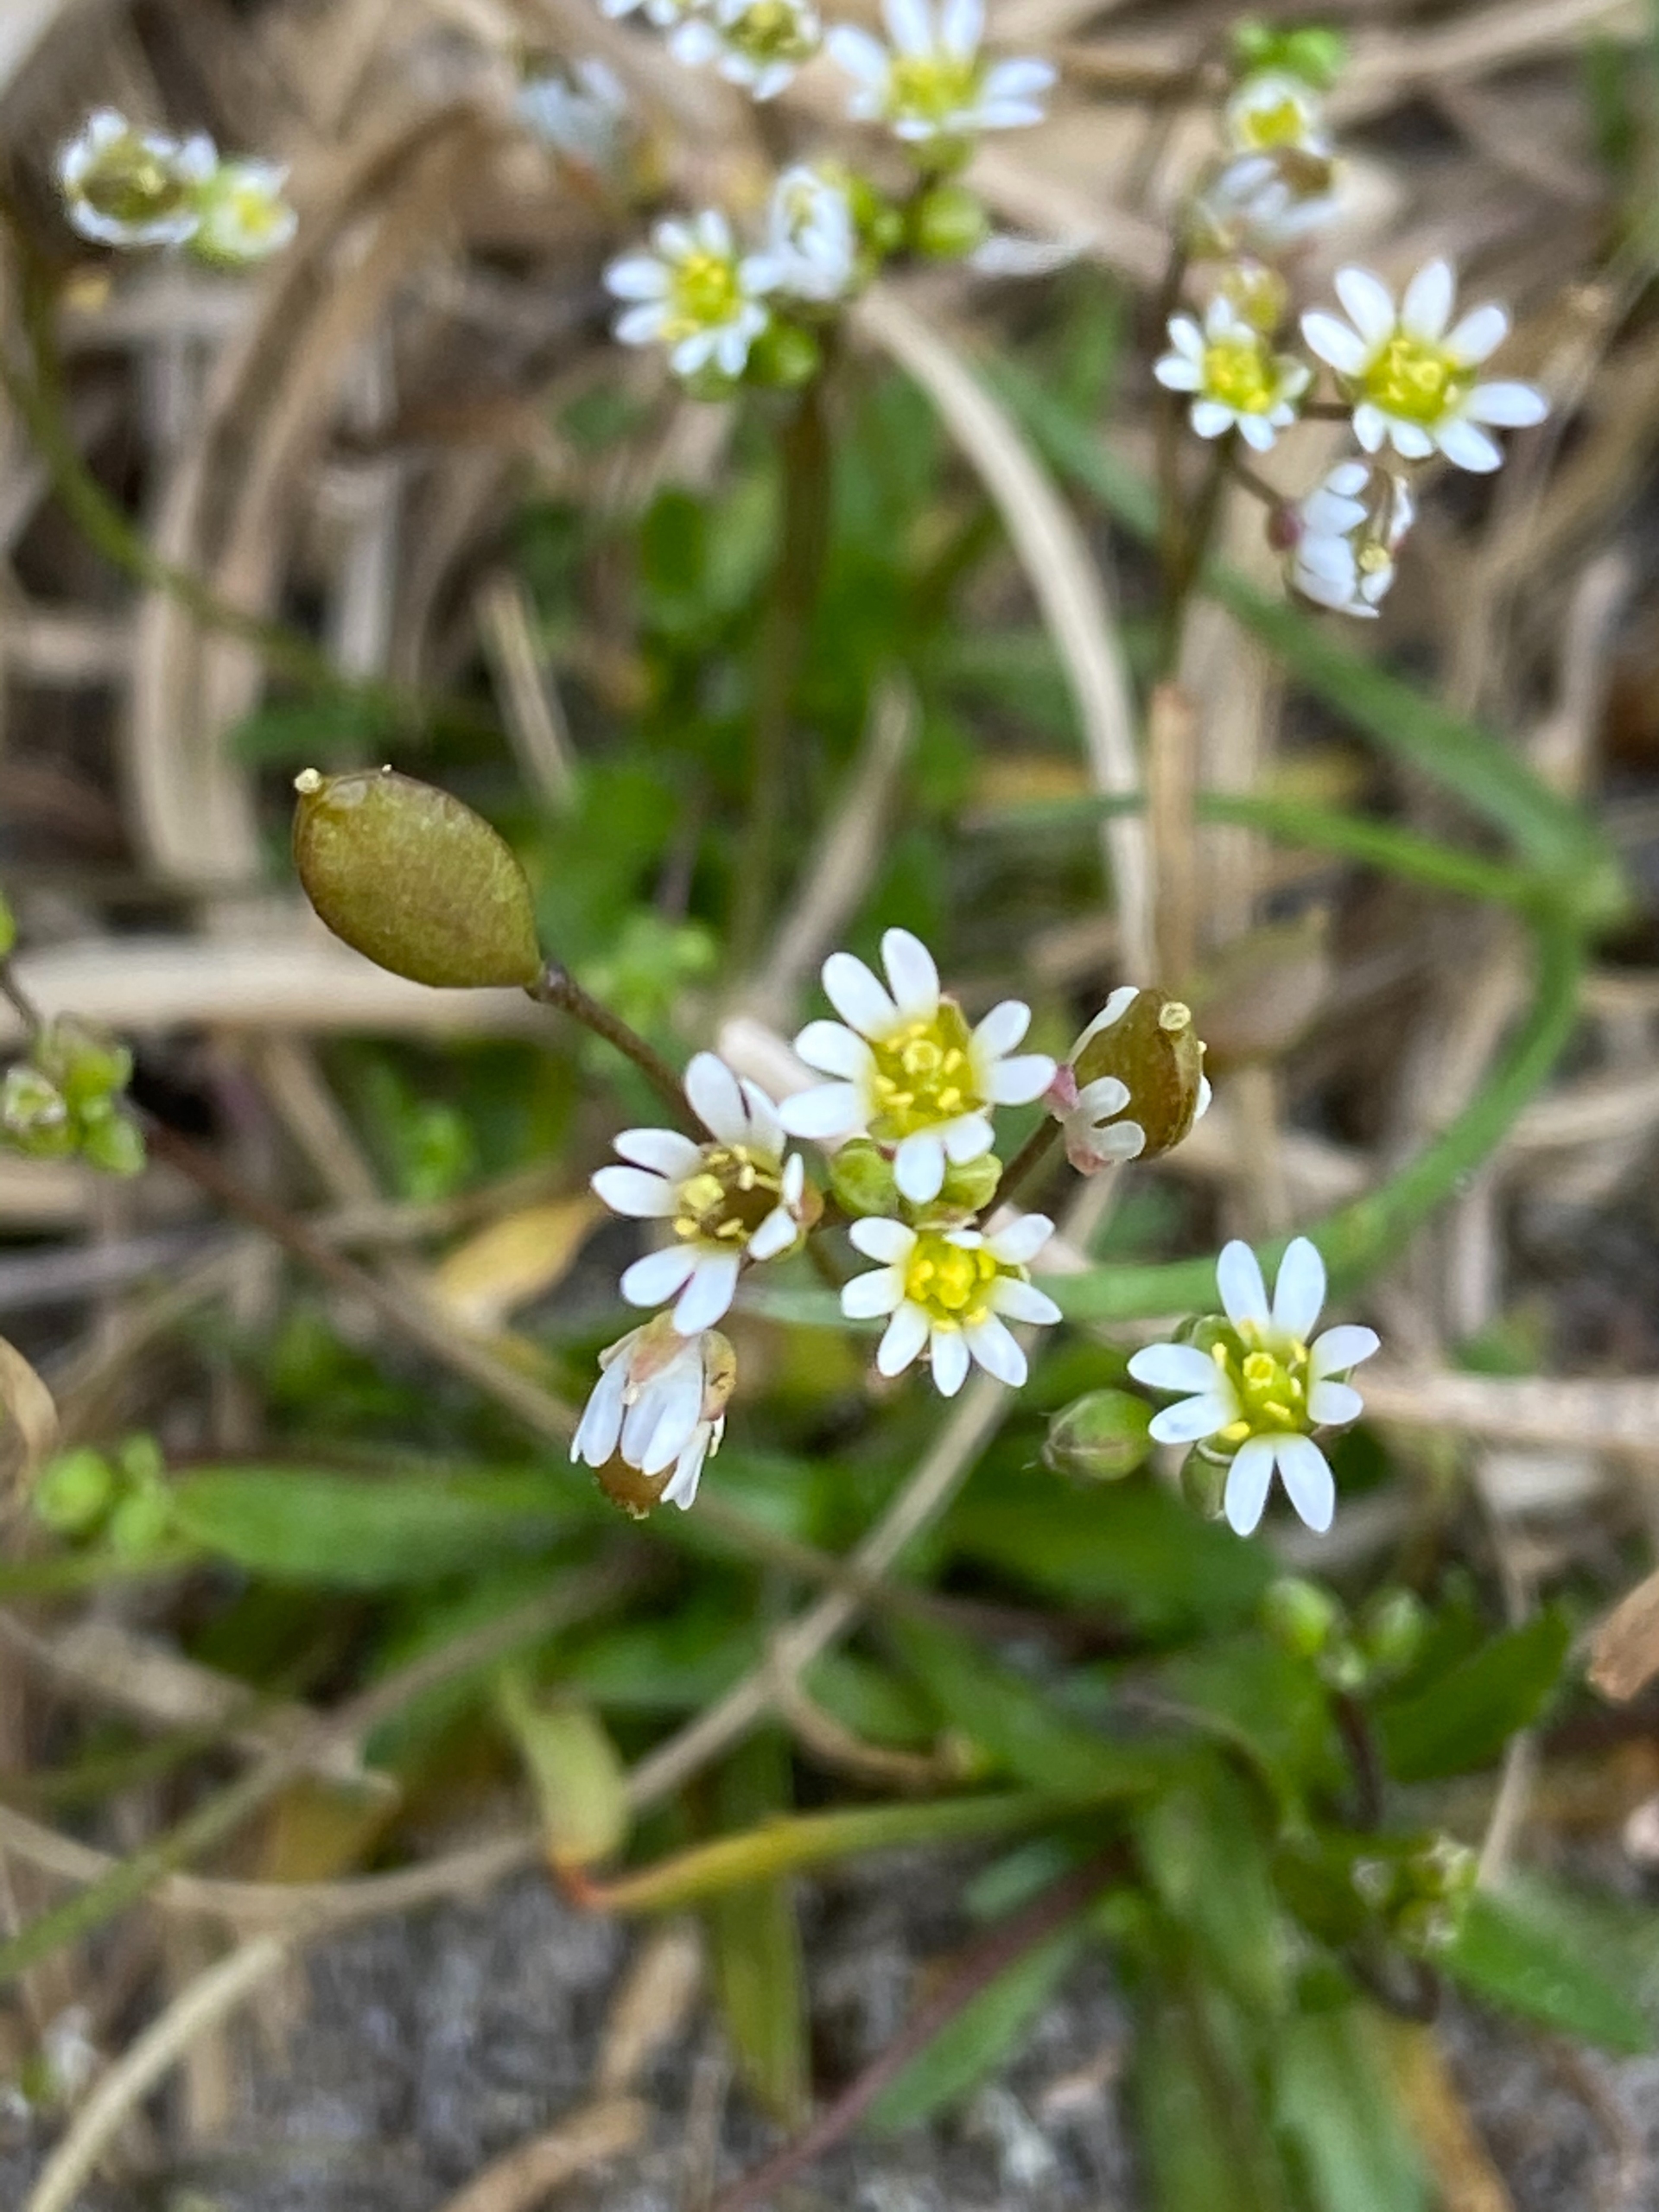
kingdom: Plantae
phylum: Tracheophyta
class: Magnoliopsida
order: Brassicales
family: Brassicaceae
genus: Draba
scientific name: Draba verna
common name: Vår-gæslingeblomst
